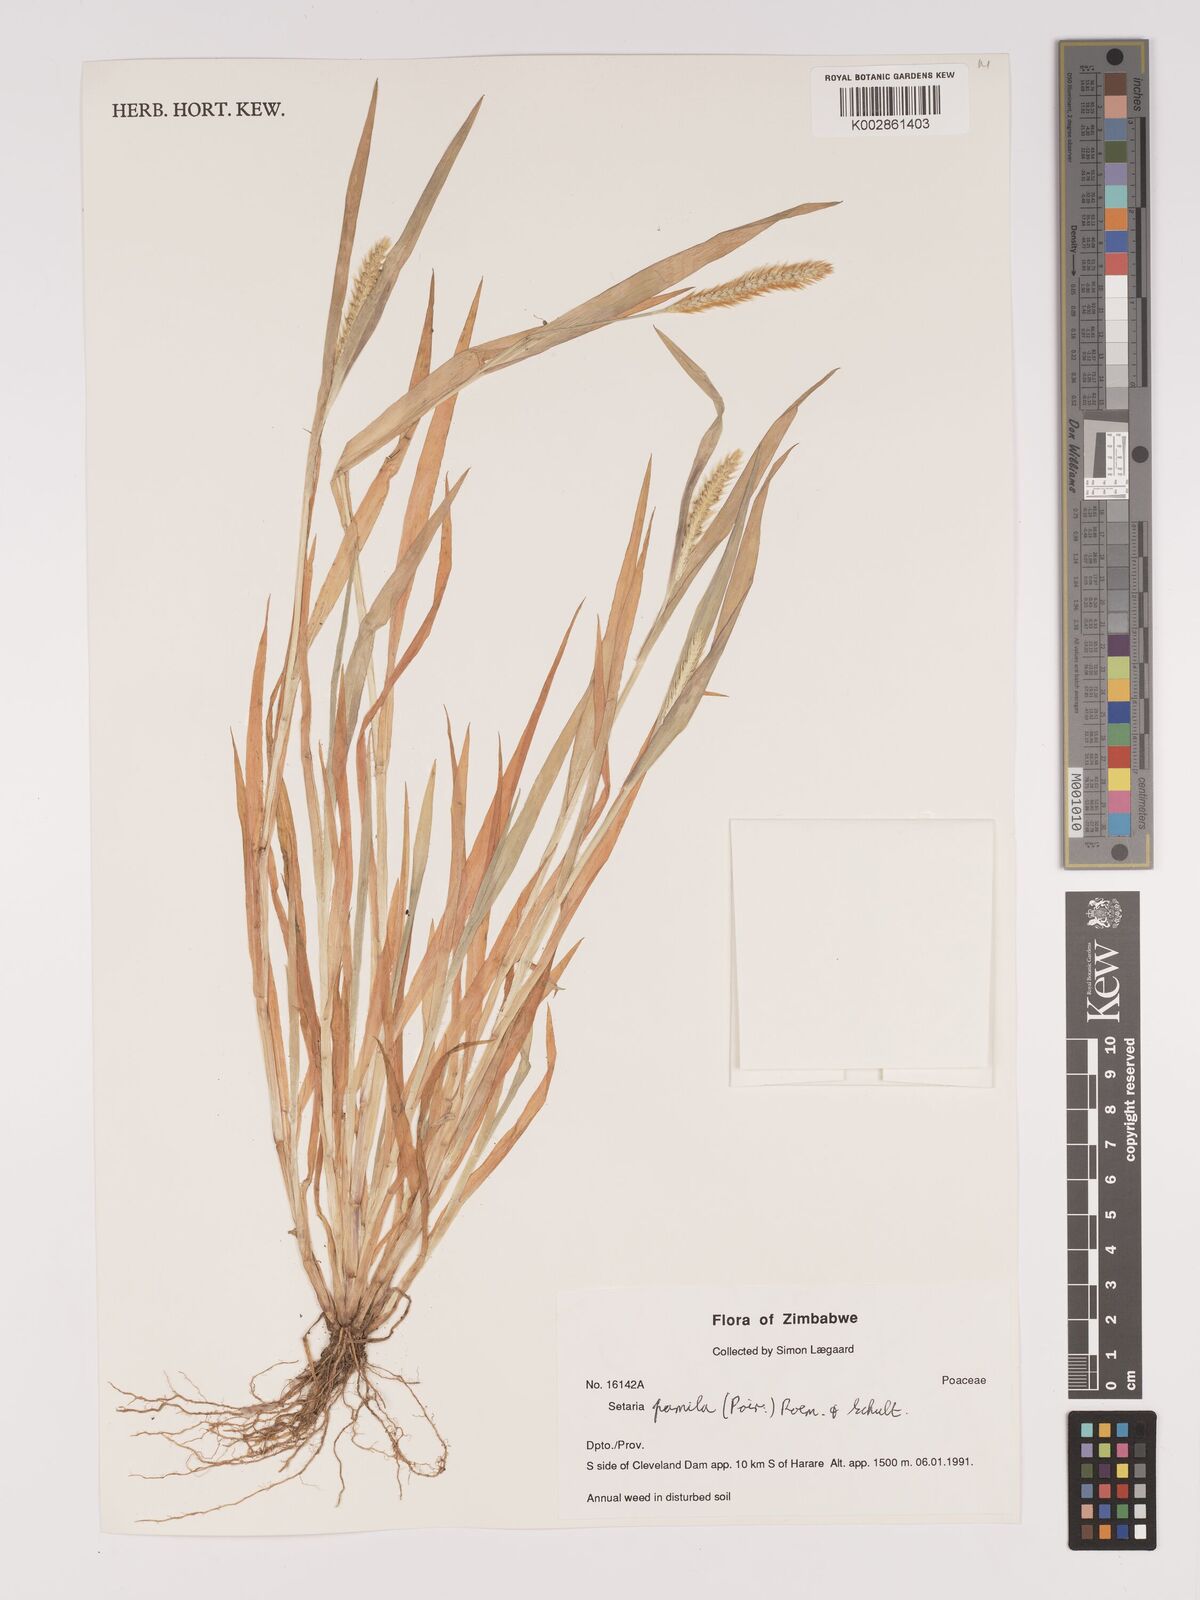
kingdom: Plantae
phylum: Tracheophyta
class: Liliopsida
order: Poales
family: Poaceae
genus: Setaria
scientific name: Setaria pumila
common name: Yellow bristle-grass
